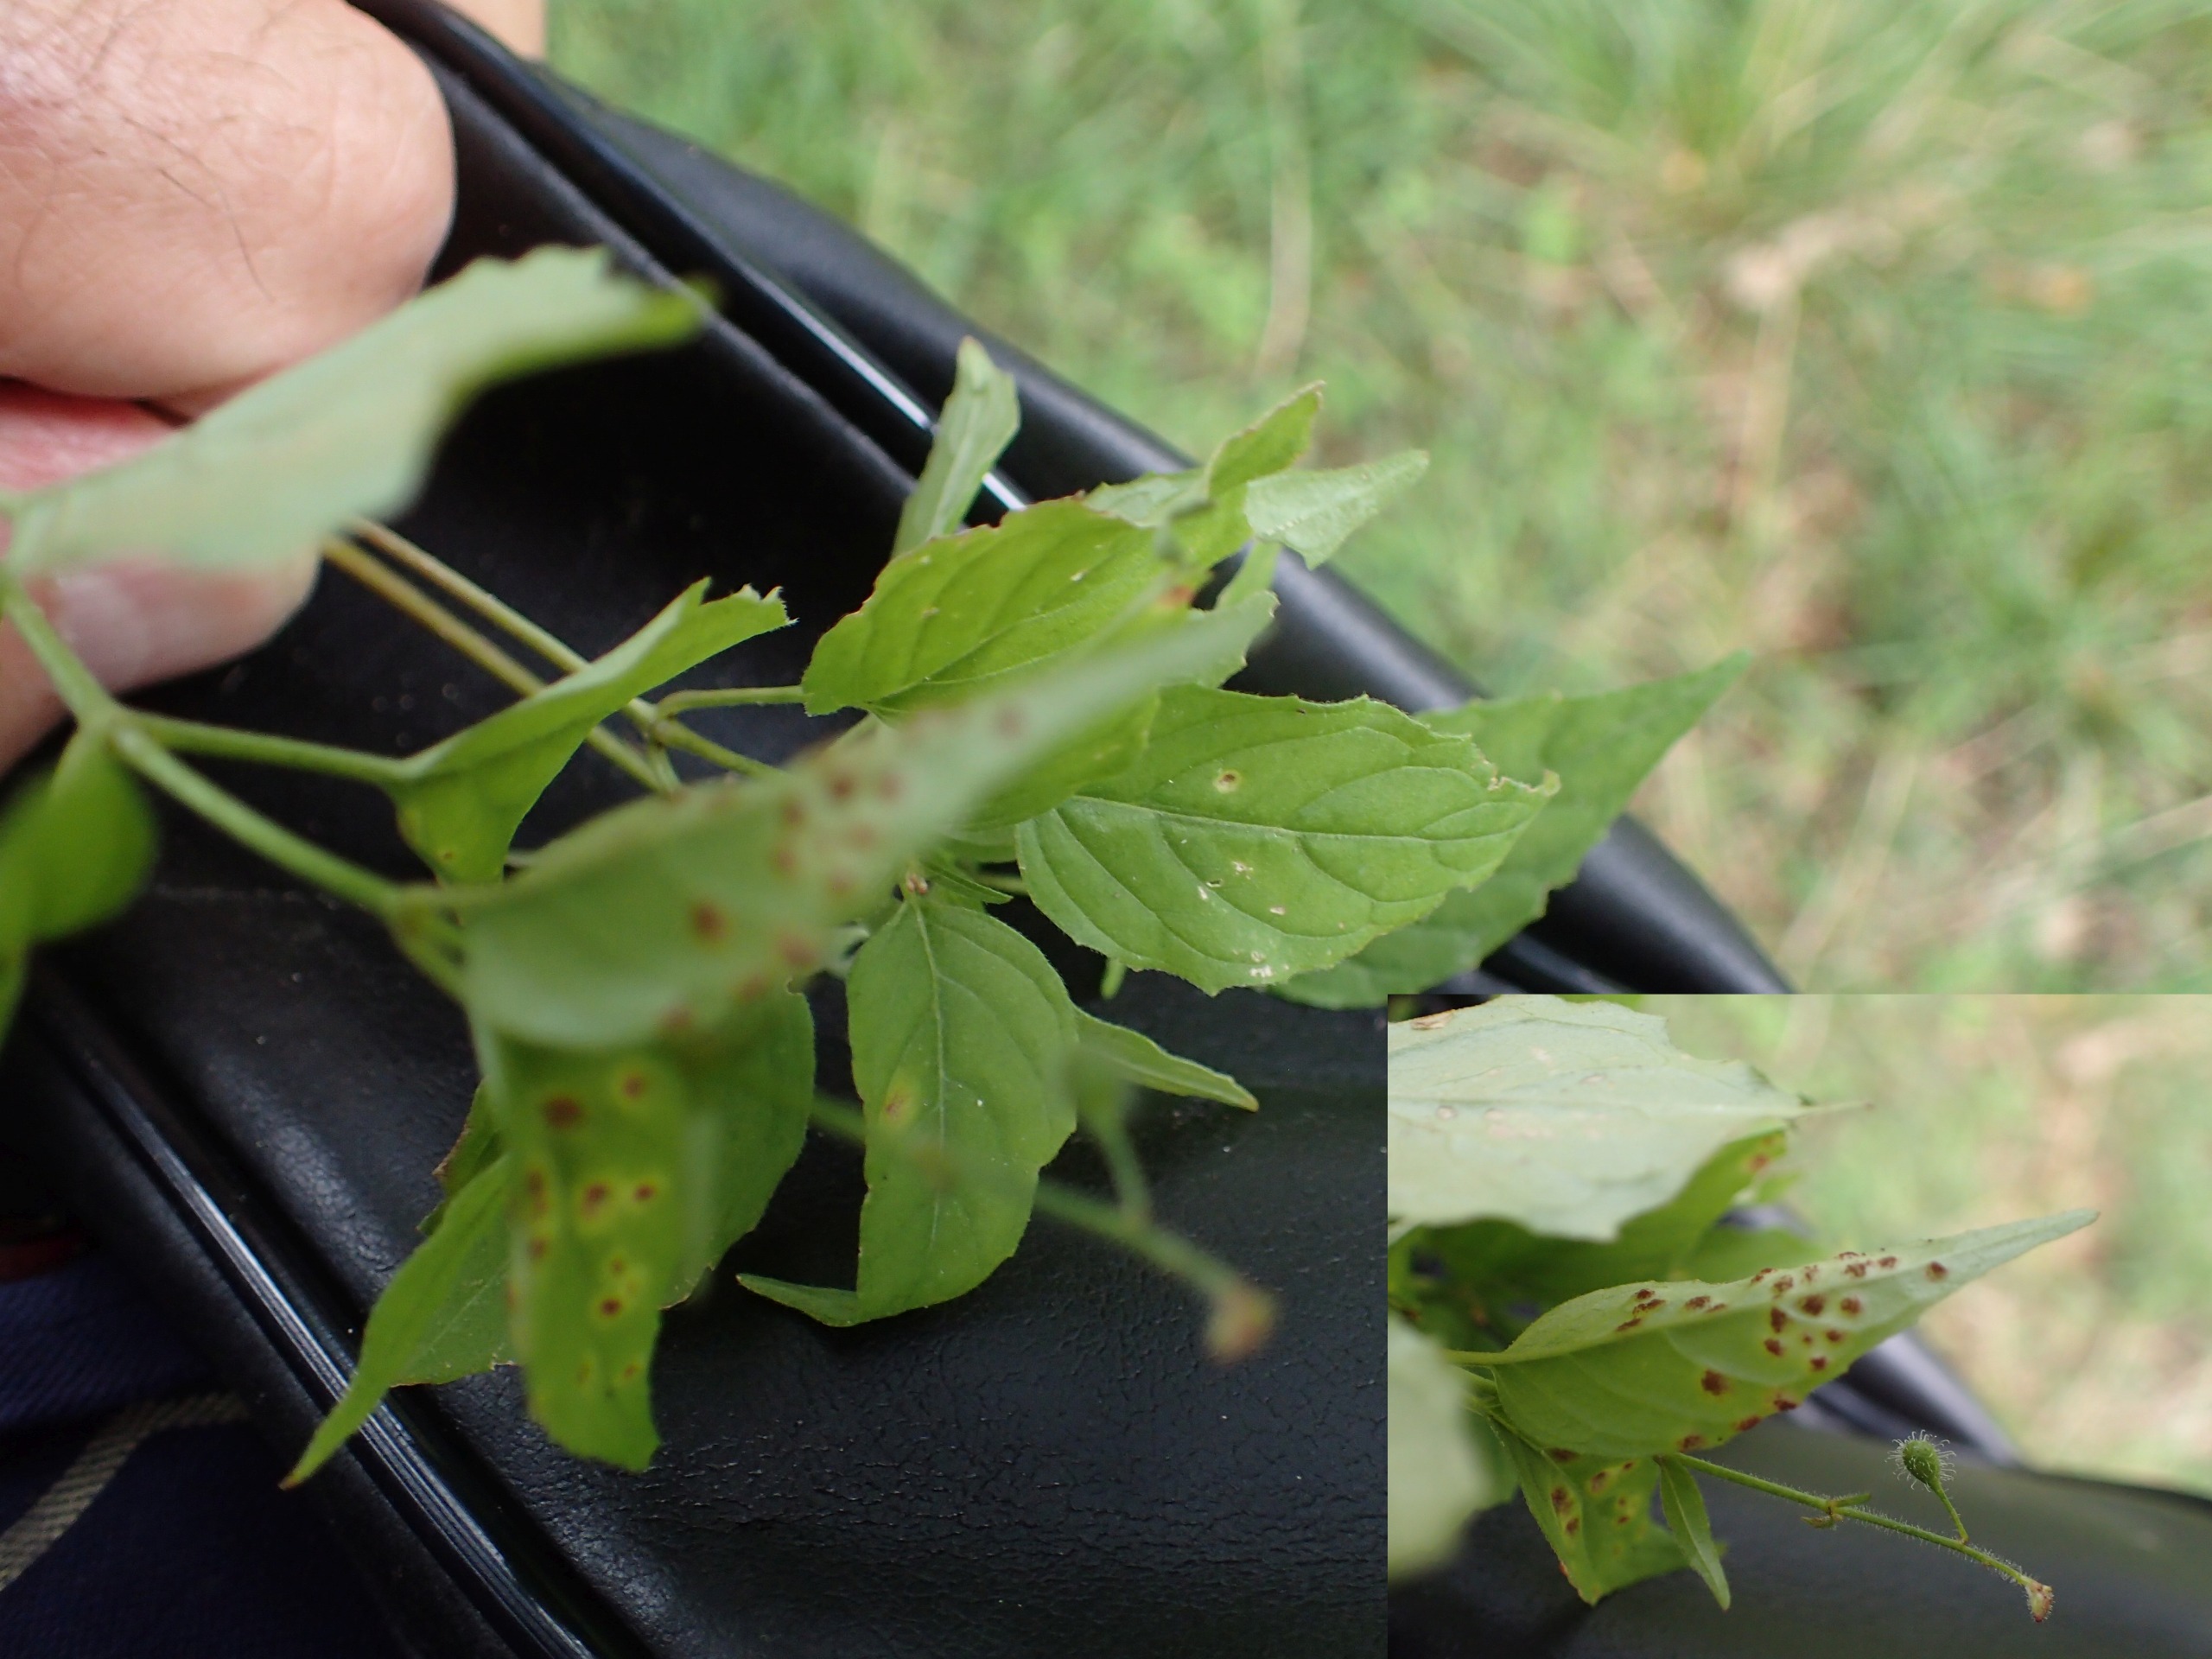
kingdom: Plantae
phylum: Tracheophyta
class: Magnoliopsida
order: Myrtales
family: Onagraceae
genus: Circaea
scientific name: Circaea lutetiana
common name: Dunet steffensurt
